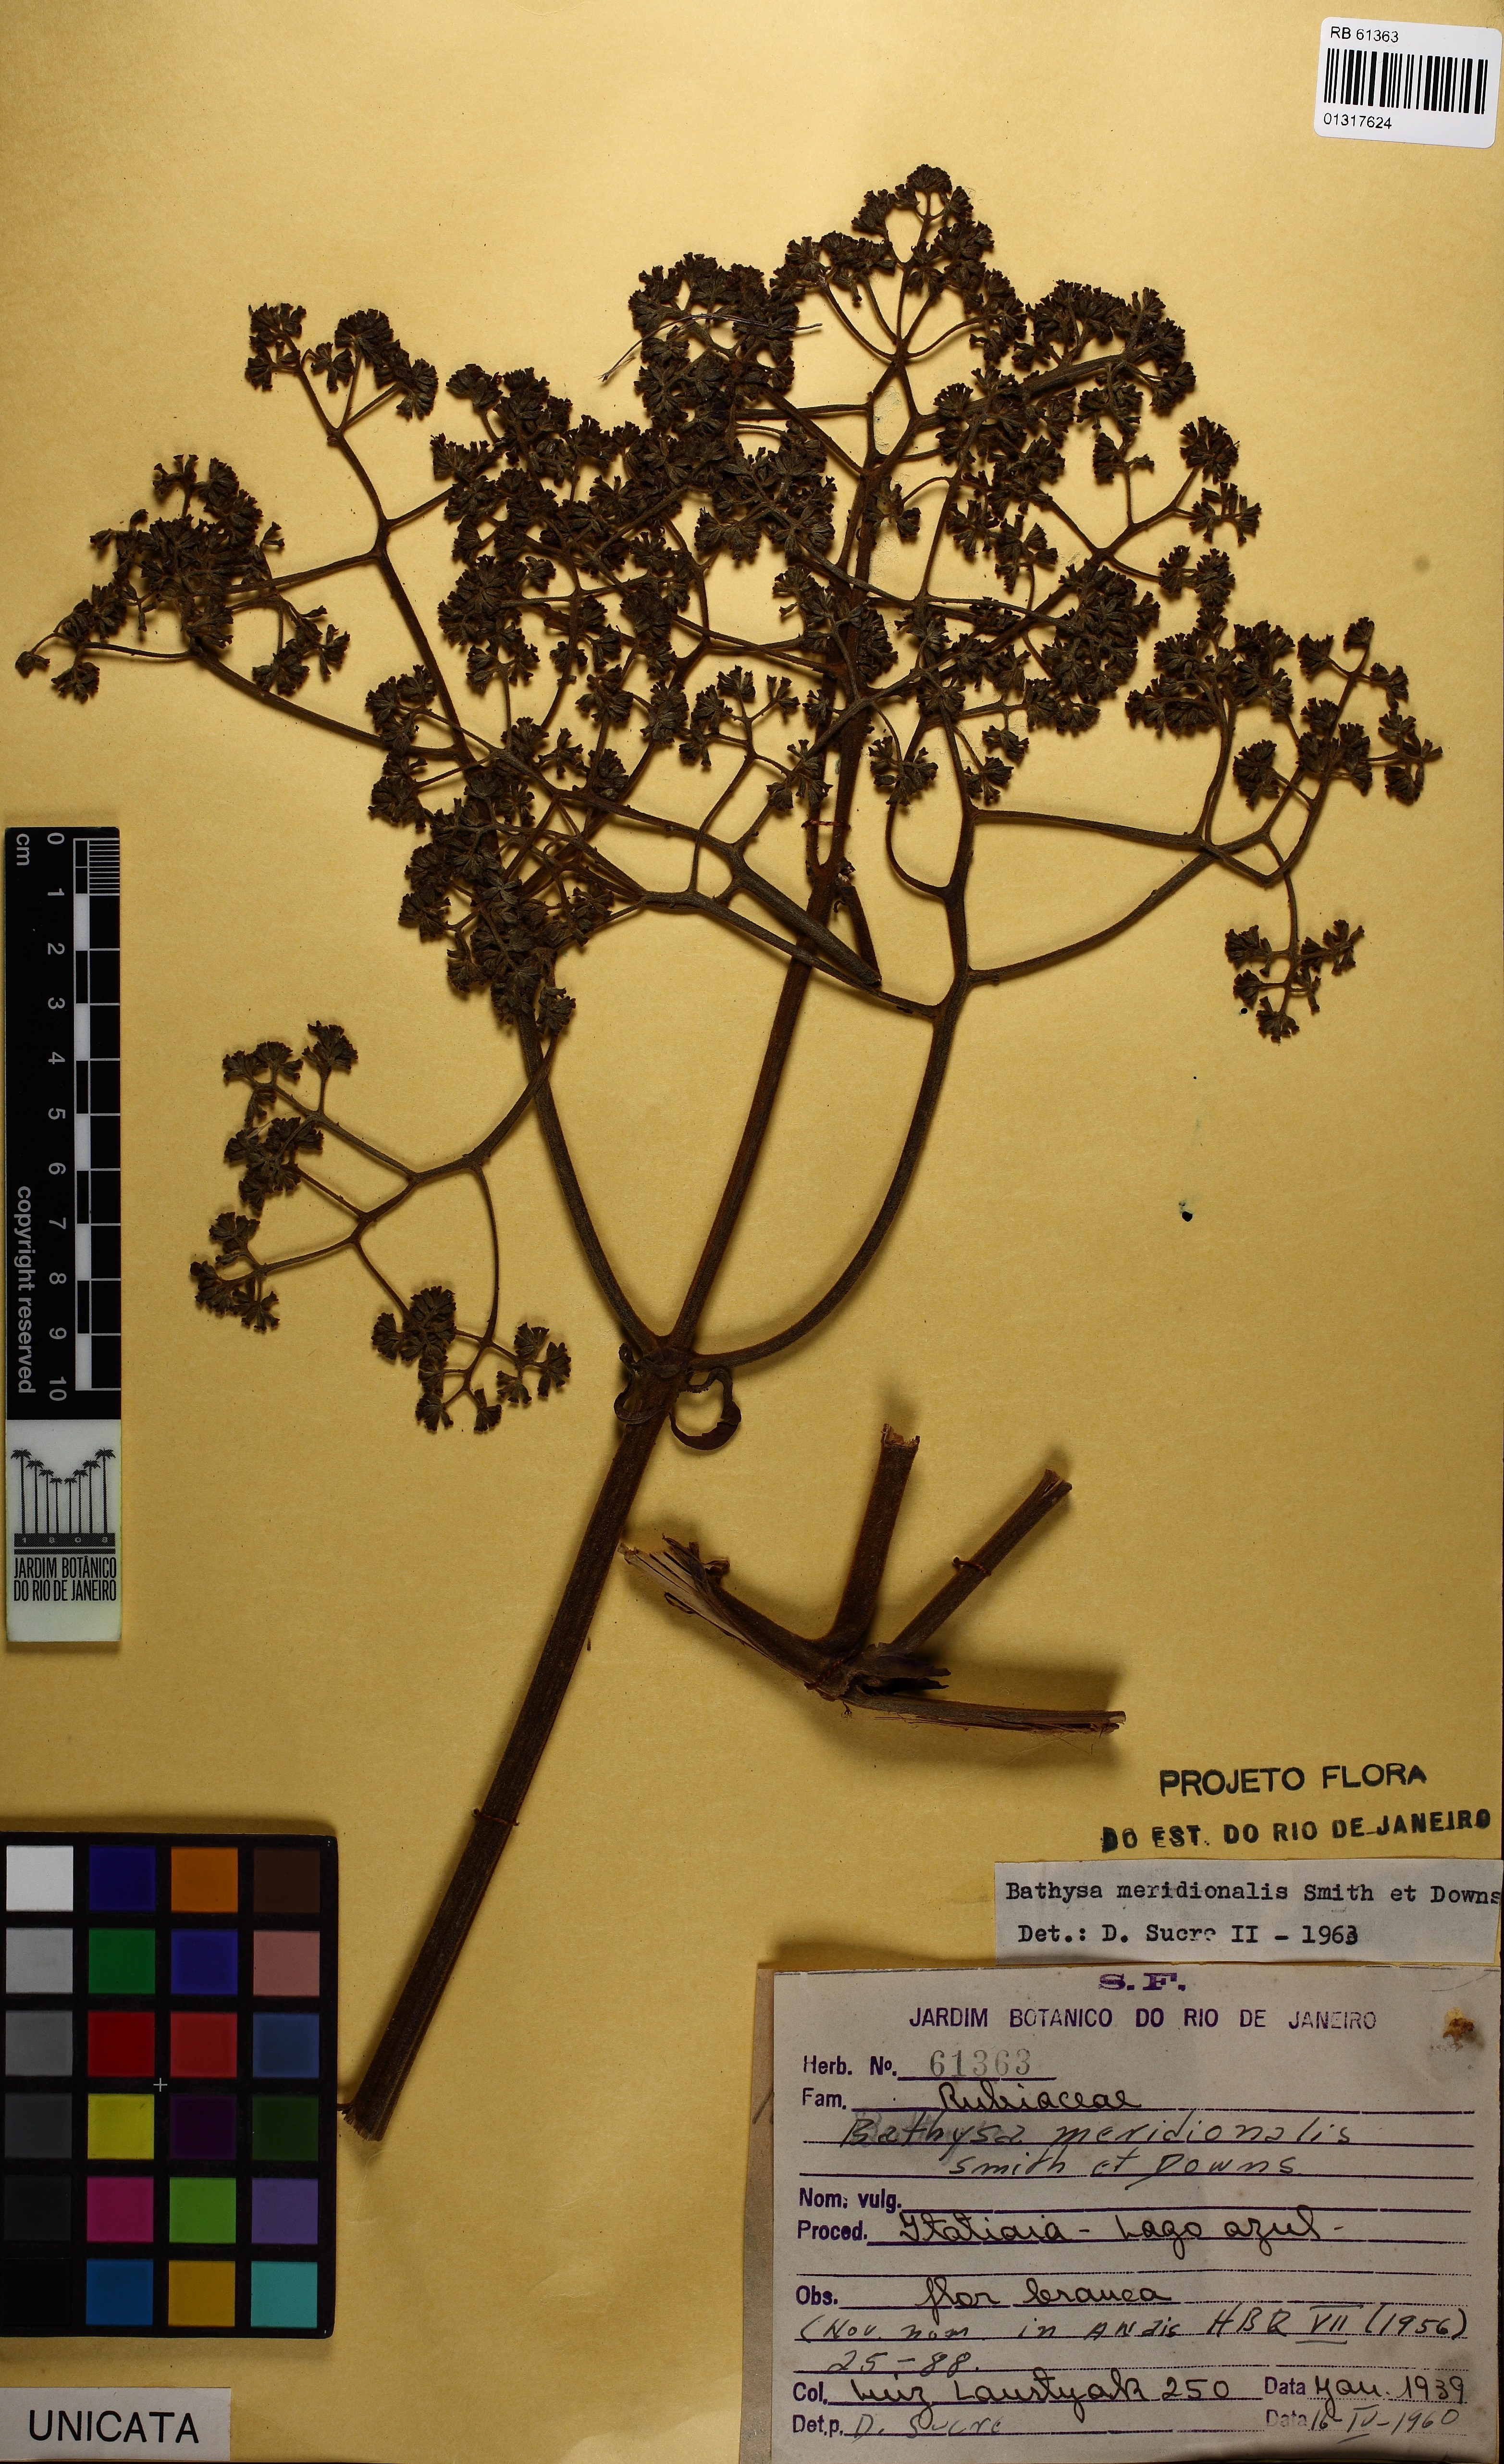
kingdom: Plantae
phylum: Tracheophyta
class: Magnoliopsida
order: Gentianales
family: Rubiaceae
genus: Bathysa
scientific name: Bathysa australis
